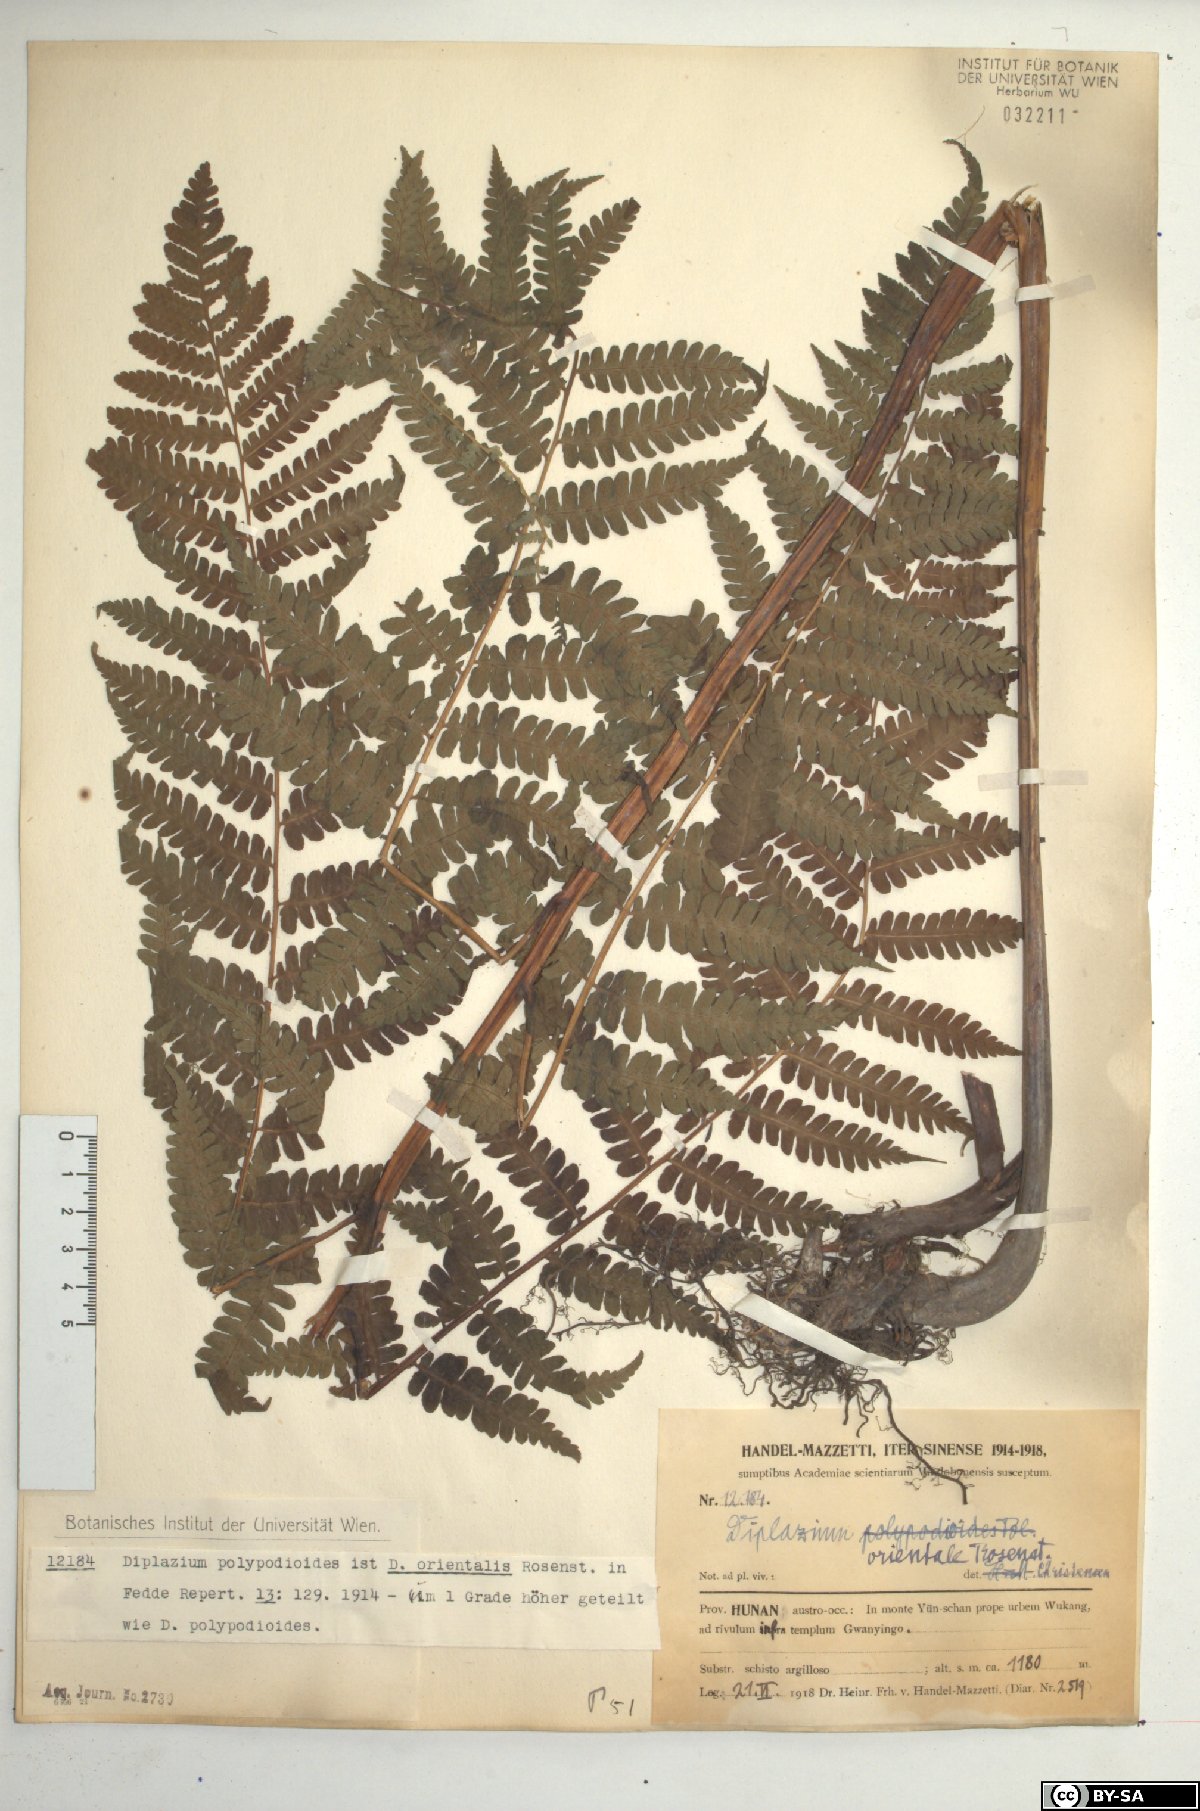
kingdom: Plantae
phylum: Tracheophyta
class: Polypodiopsida
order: Polypodiales
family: Athyriaceae
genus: Diplazium
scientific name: Diplazium chinense
